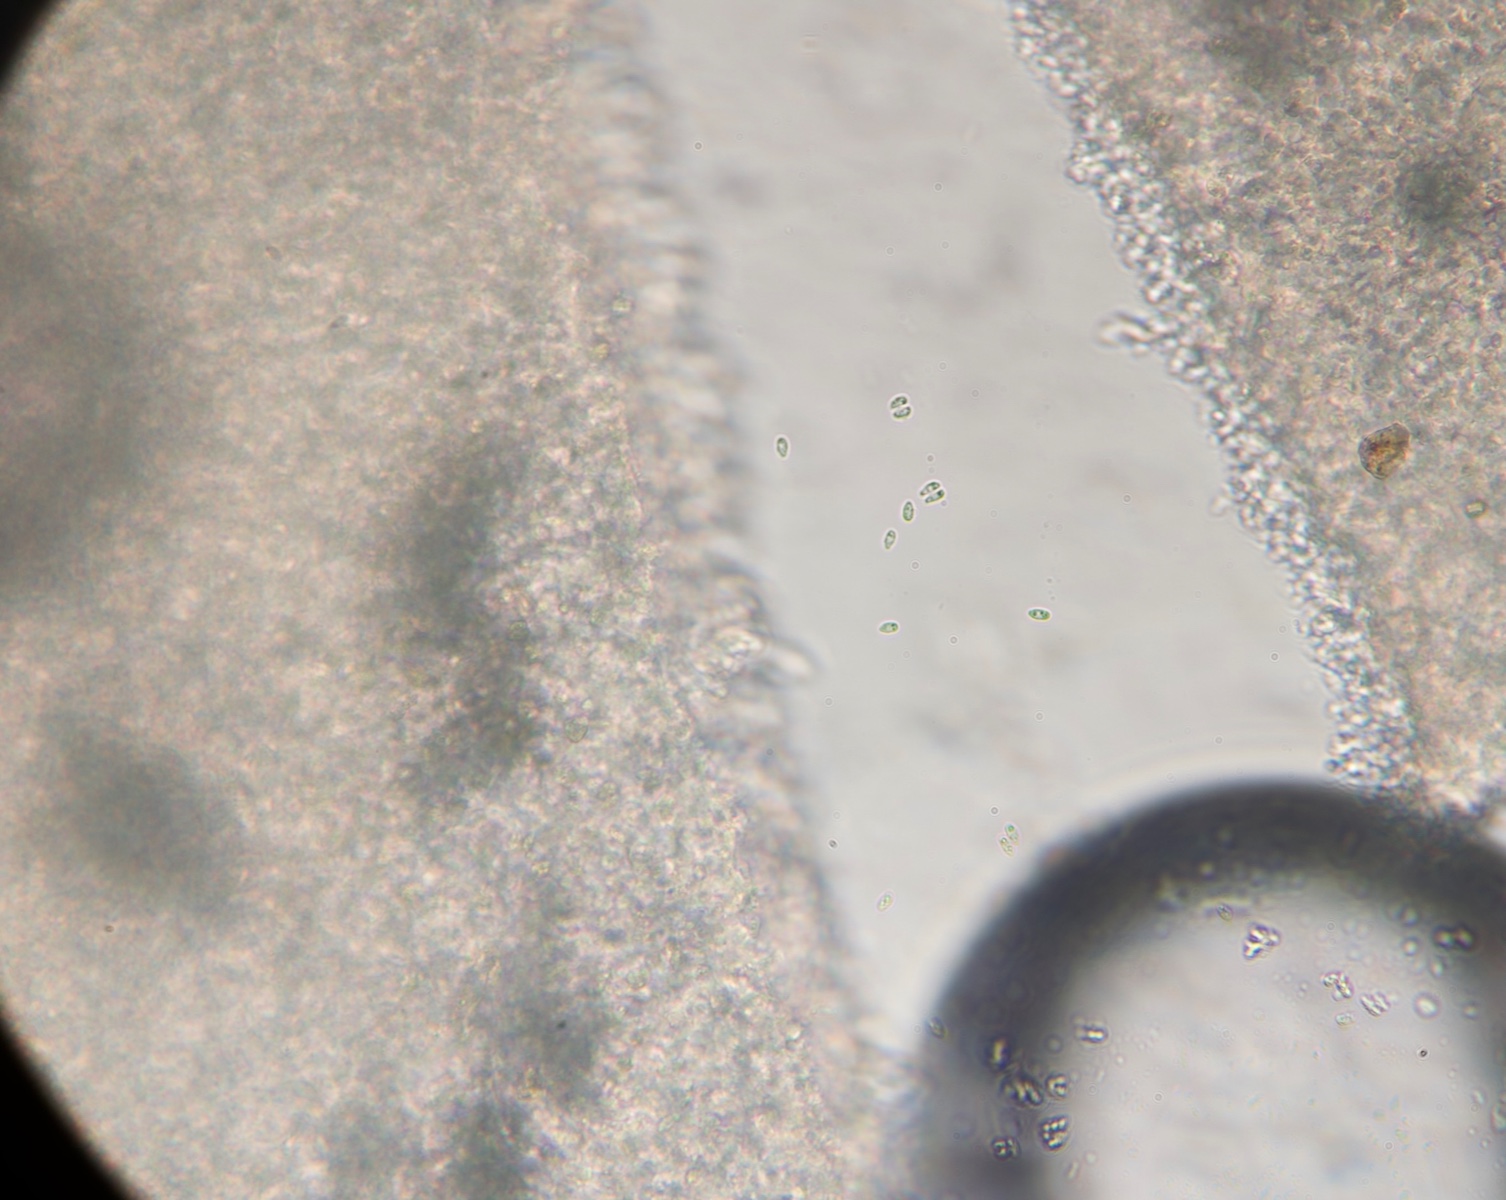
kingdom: Fungi
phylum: Basidiomycota
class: Agaricomycetes
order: Agaricales
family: Lyophyllaceae
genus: Calocybe
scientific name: Calocybe carnea
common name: rosa fagerhat
